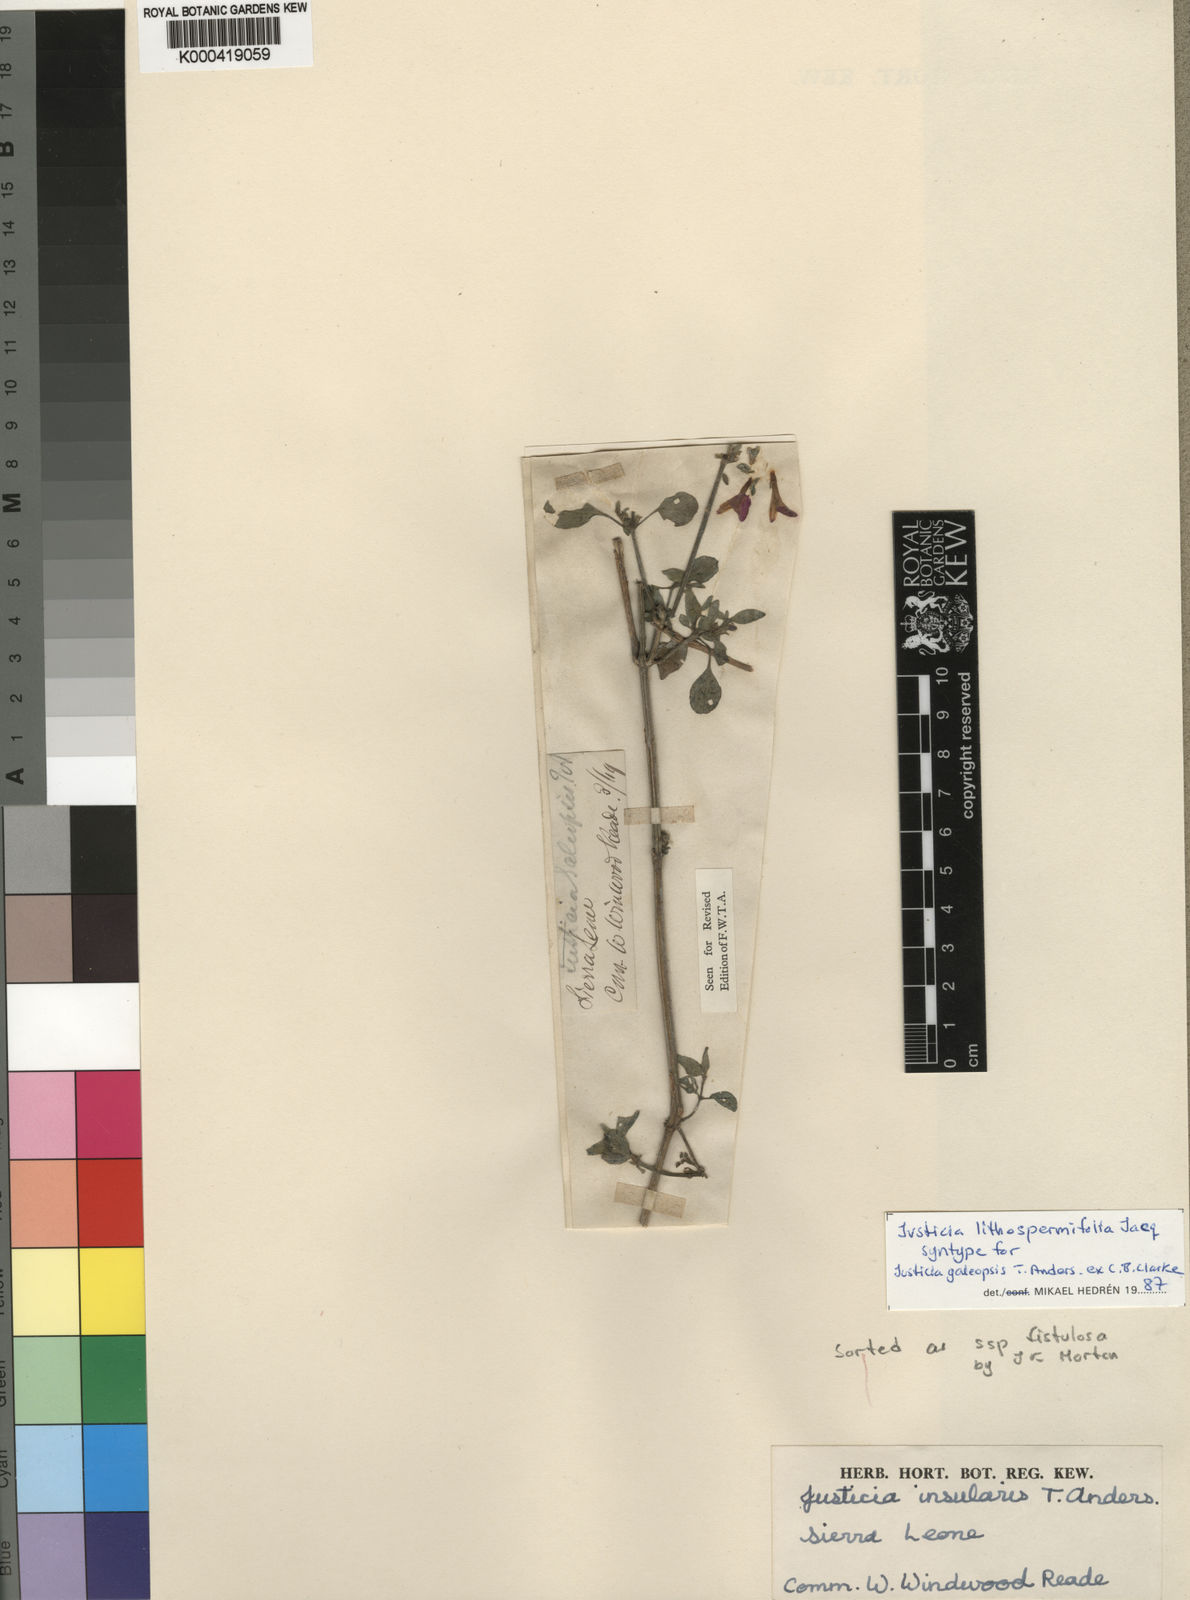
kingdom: Plantae
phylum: Tracheophyta
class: Magnoliopsida
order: Lamiales
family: Acanthaceae
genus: Justicia
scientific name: Justicia ladanoides
